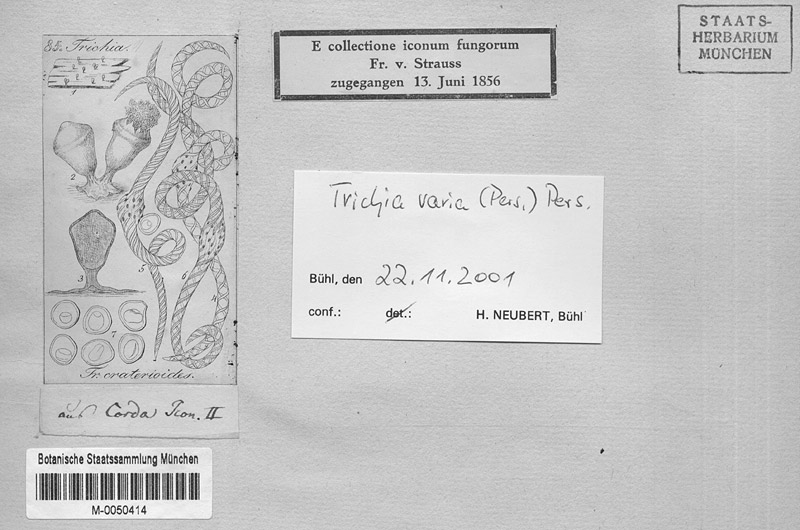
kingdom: Protozoa
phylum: Mycetozoa
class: Myxomycetes
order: Trichiales
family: Trichiaceae
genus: Trichia
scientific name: Trichia varia
